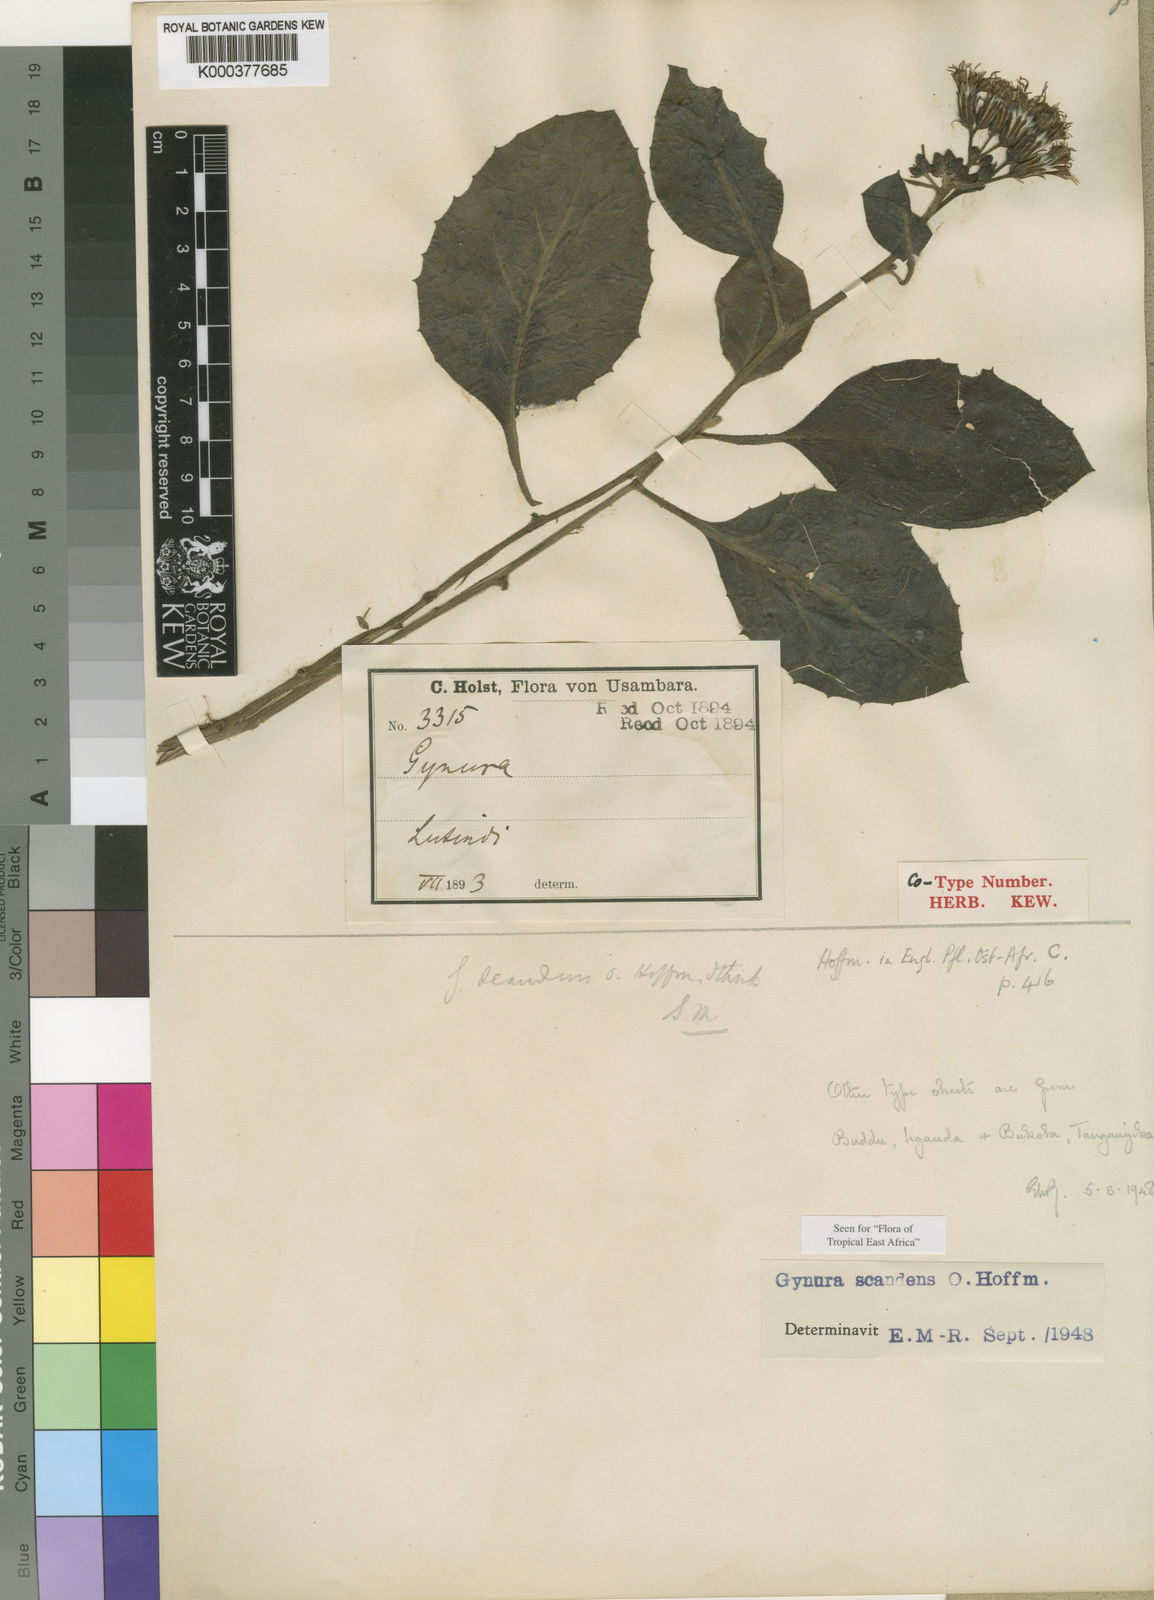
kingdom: Plantae
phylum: Tracheophyta
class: Magnoliopsida
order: Asterales
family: Asteraceae
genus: Gynura
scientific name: Gynura scandens
